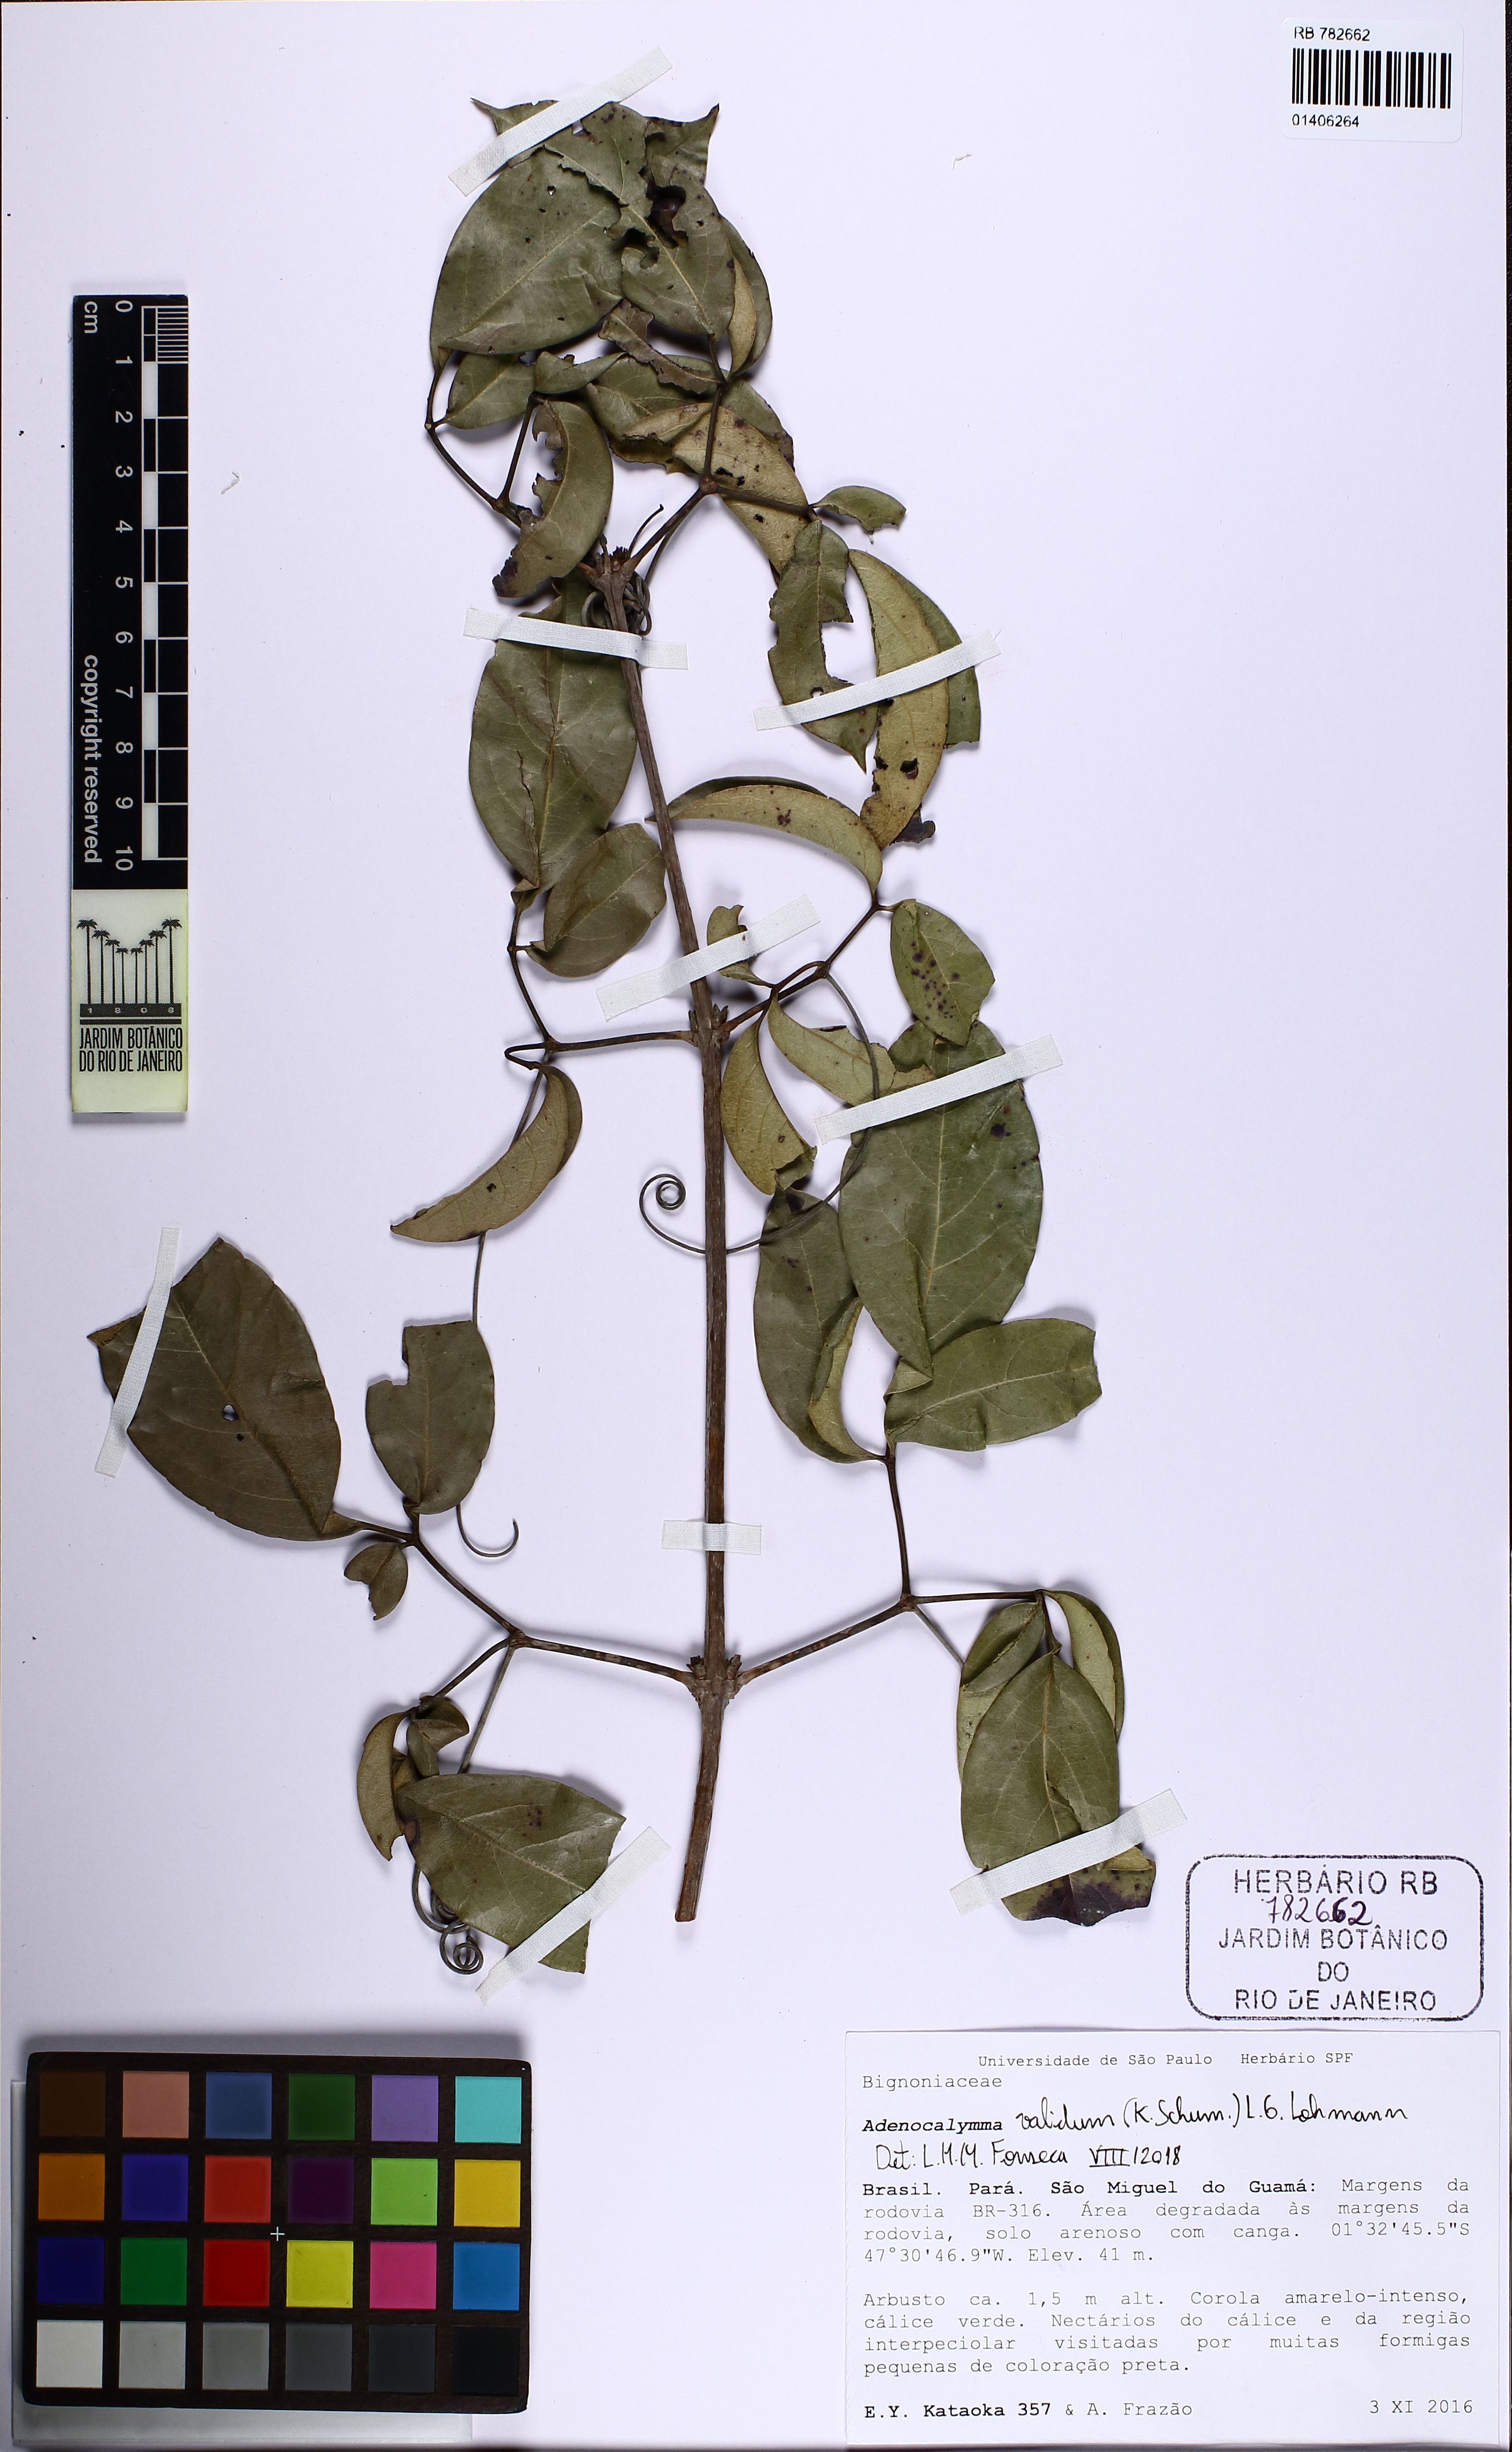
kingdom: Plantae
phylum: Tracheophyta
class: Magnoliopsida
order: Lamiales
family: Bignoniaceae
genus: Adenocalymma
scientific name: Adenocalymma validum
